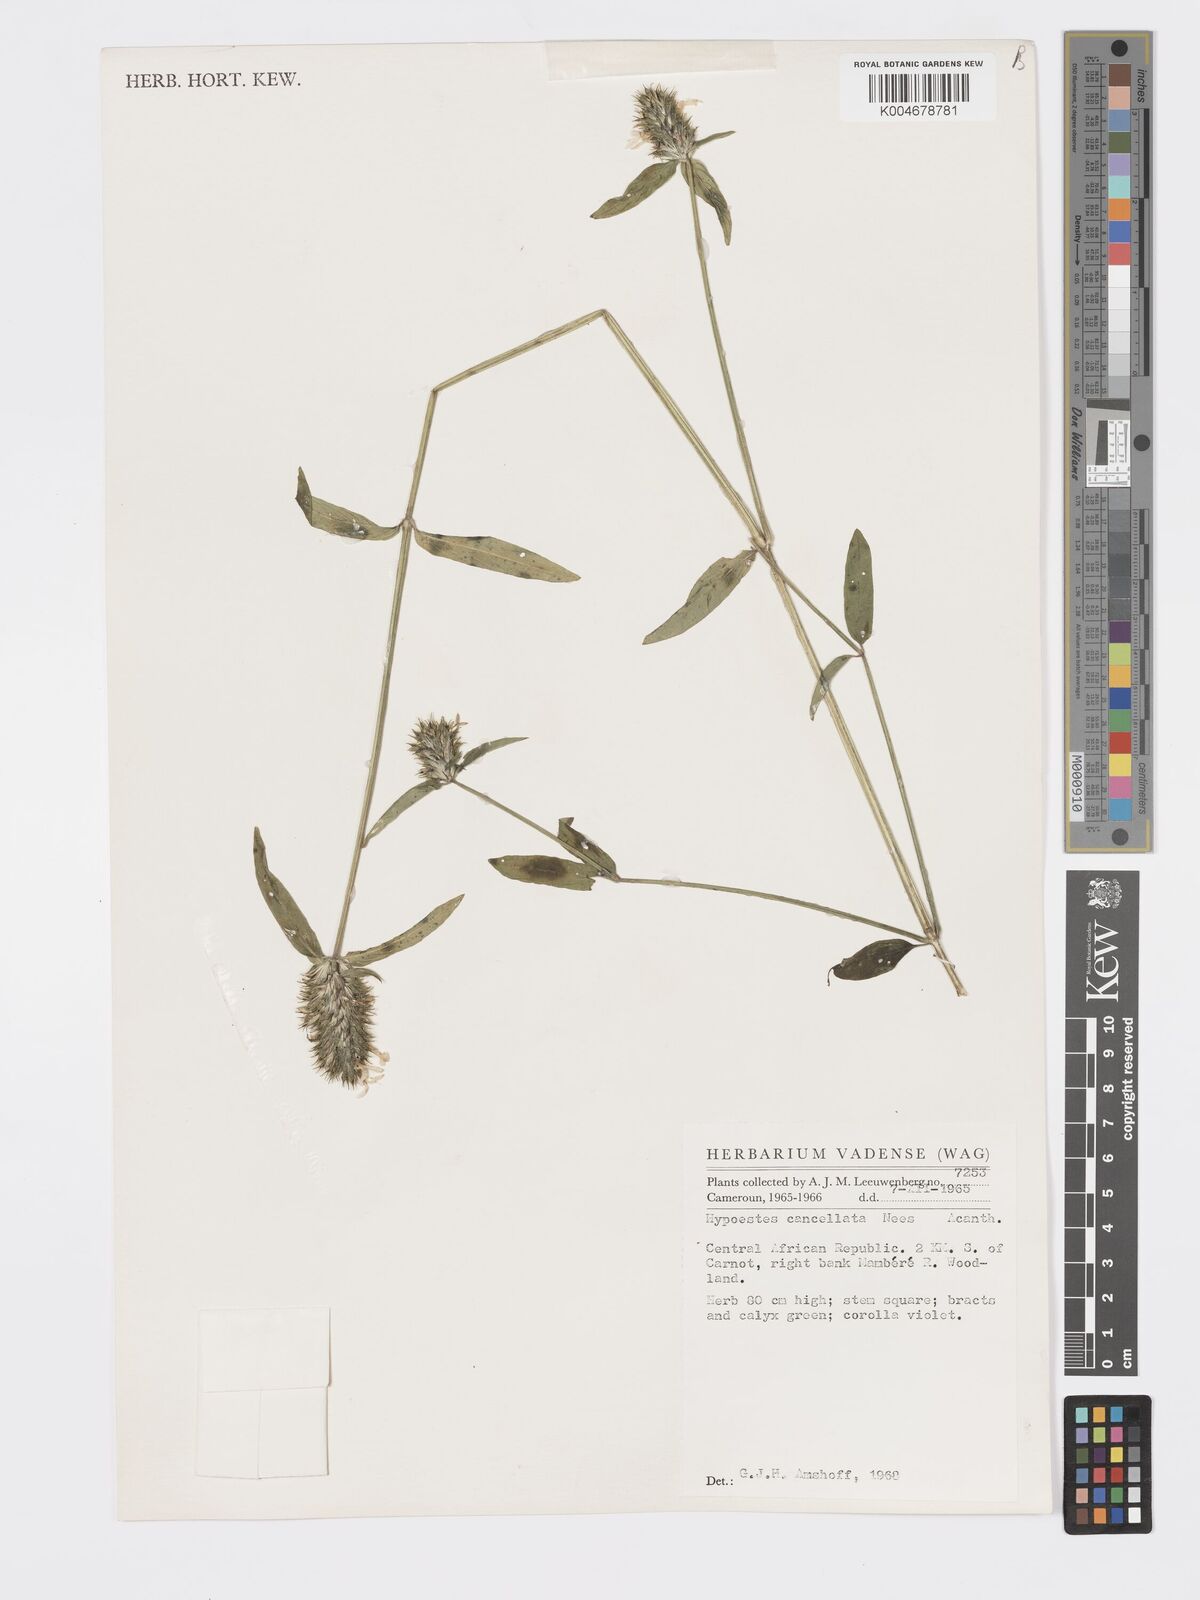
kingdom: Plantae
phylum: Tracheophyta
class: Magnoliopsida
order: Lamiales
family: Acanthaceae
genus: Hypoestes
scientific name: Hypoestes cancellata
